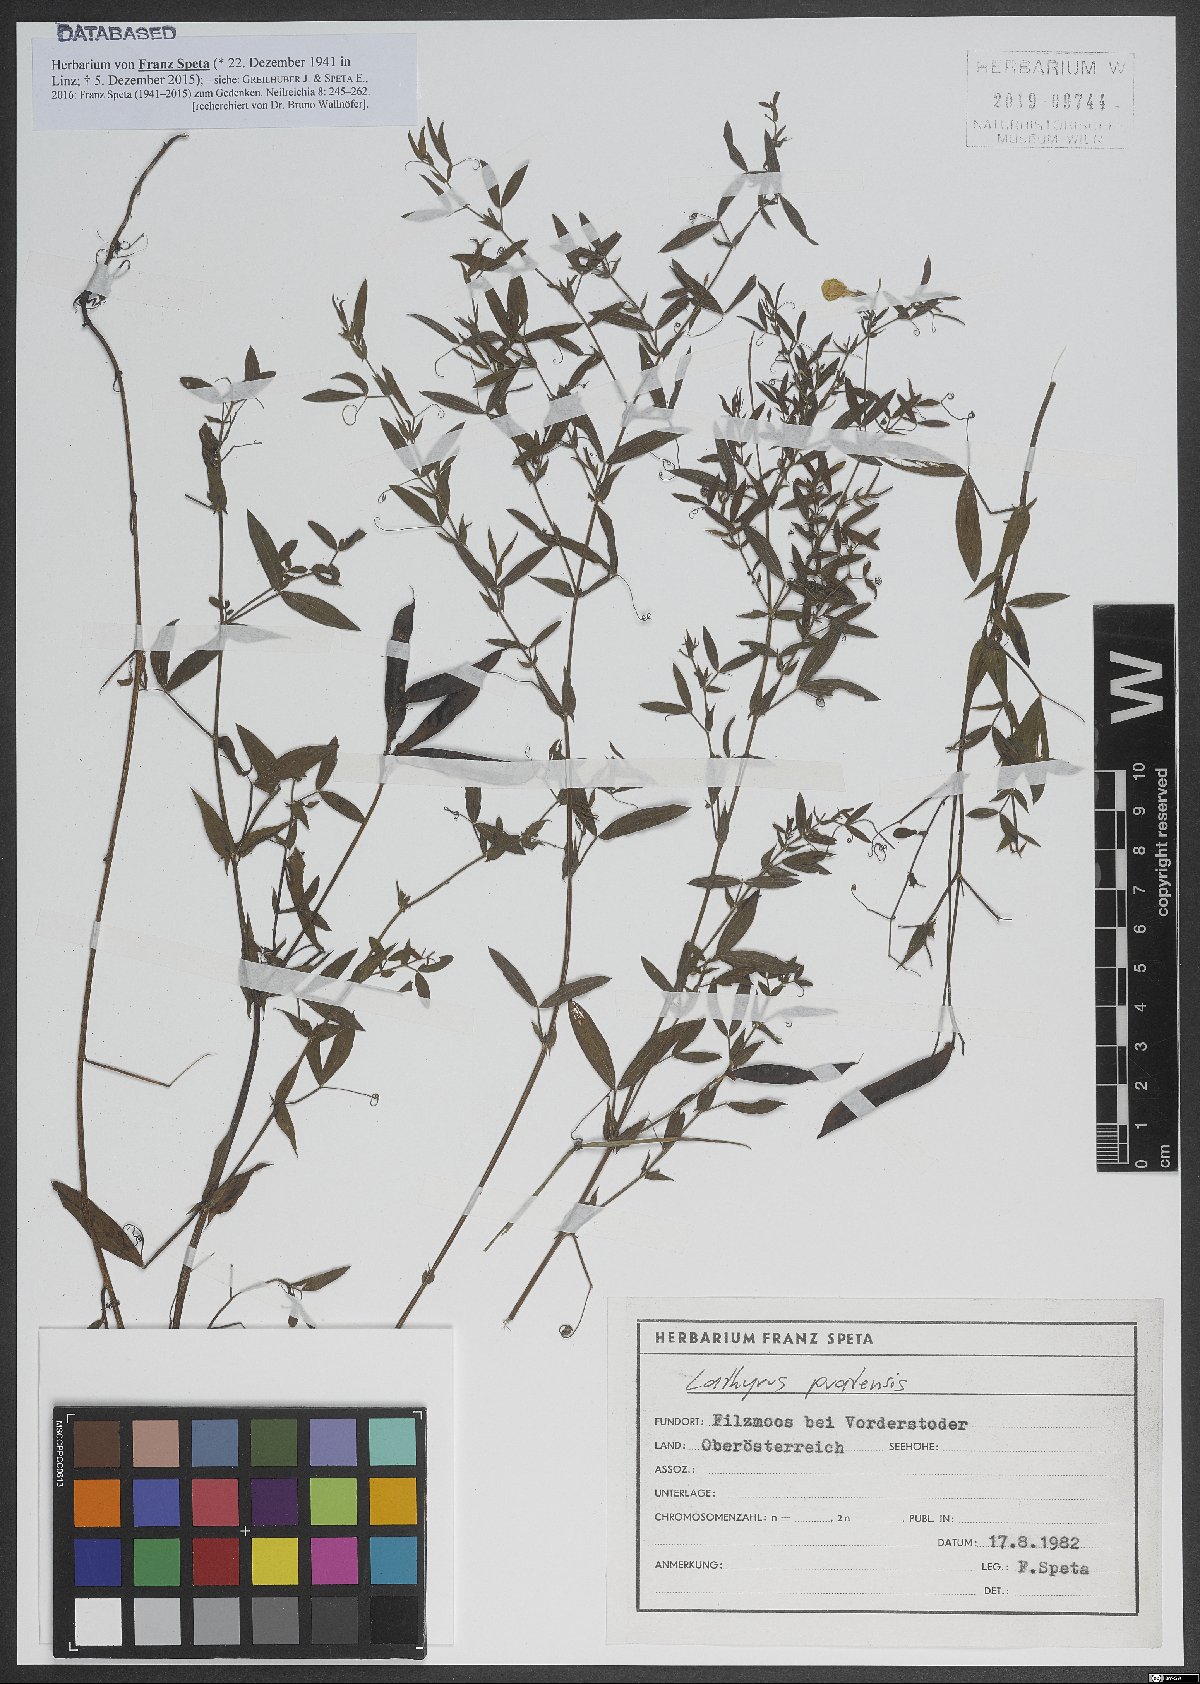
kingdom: Plantae
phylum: Tracheophyta
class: Magnoliopsida
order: Fabales
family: Fabaceae
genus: Lathyrus
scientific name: Lathyrus pratensis
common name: Meadow vetchling
